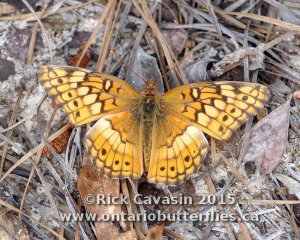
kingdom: Animalia
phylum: Arthropoda
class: Insecta
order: Lepidoptera
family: Nymphalidae
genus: Euptoieta
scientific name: Euptoieta claudia
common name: Variegated Fritillary
